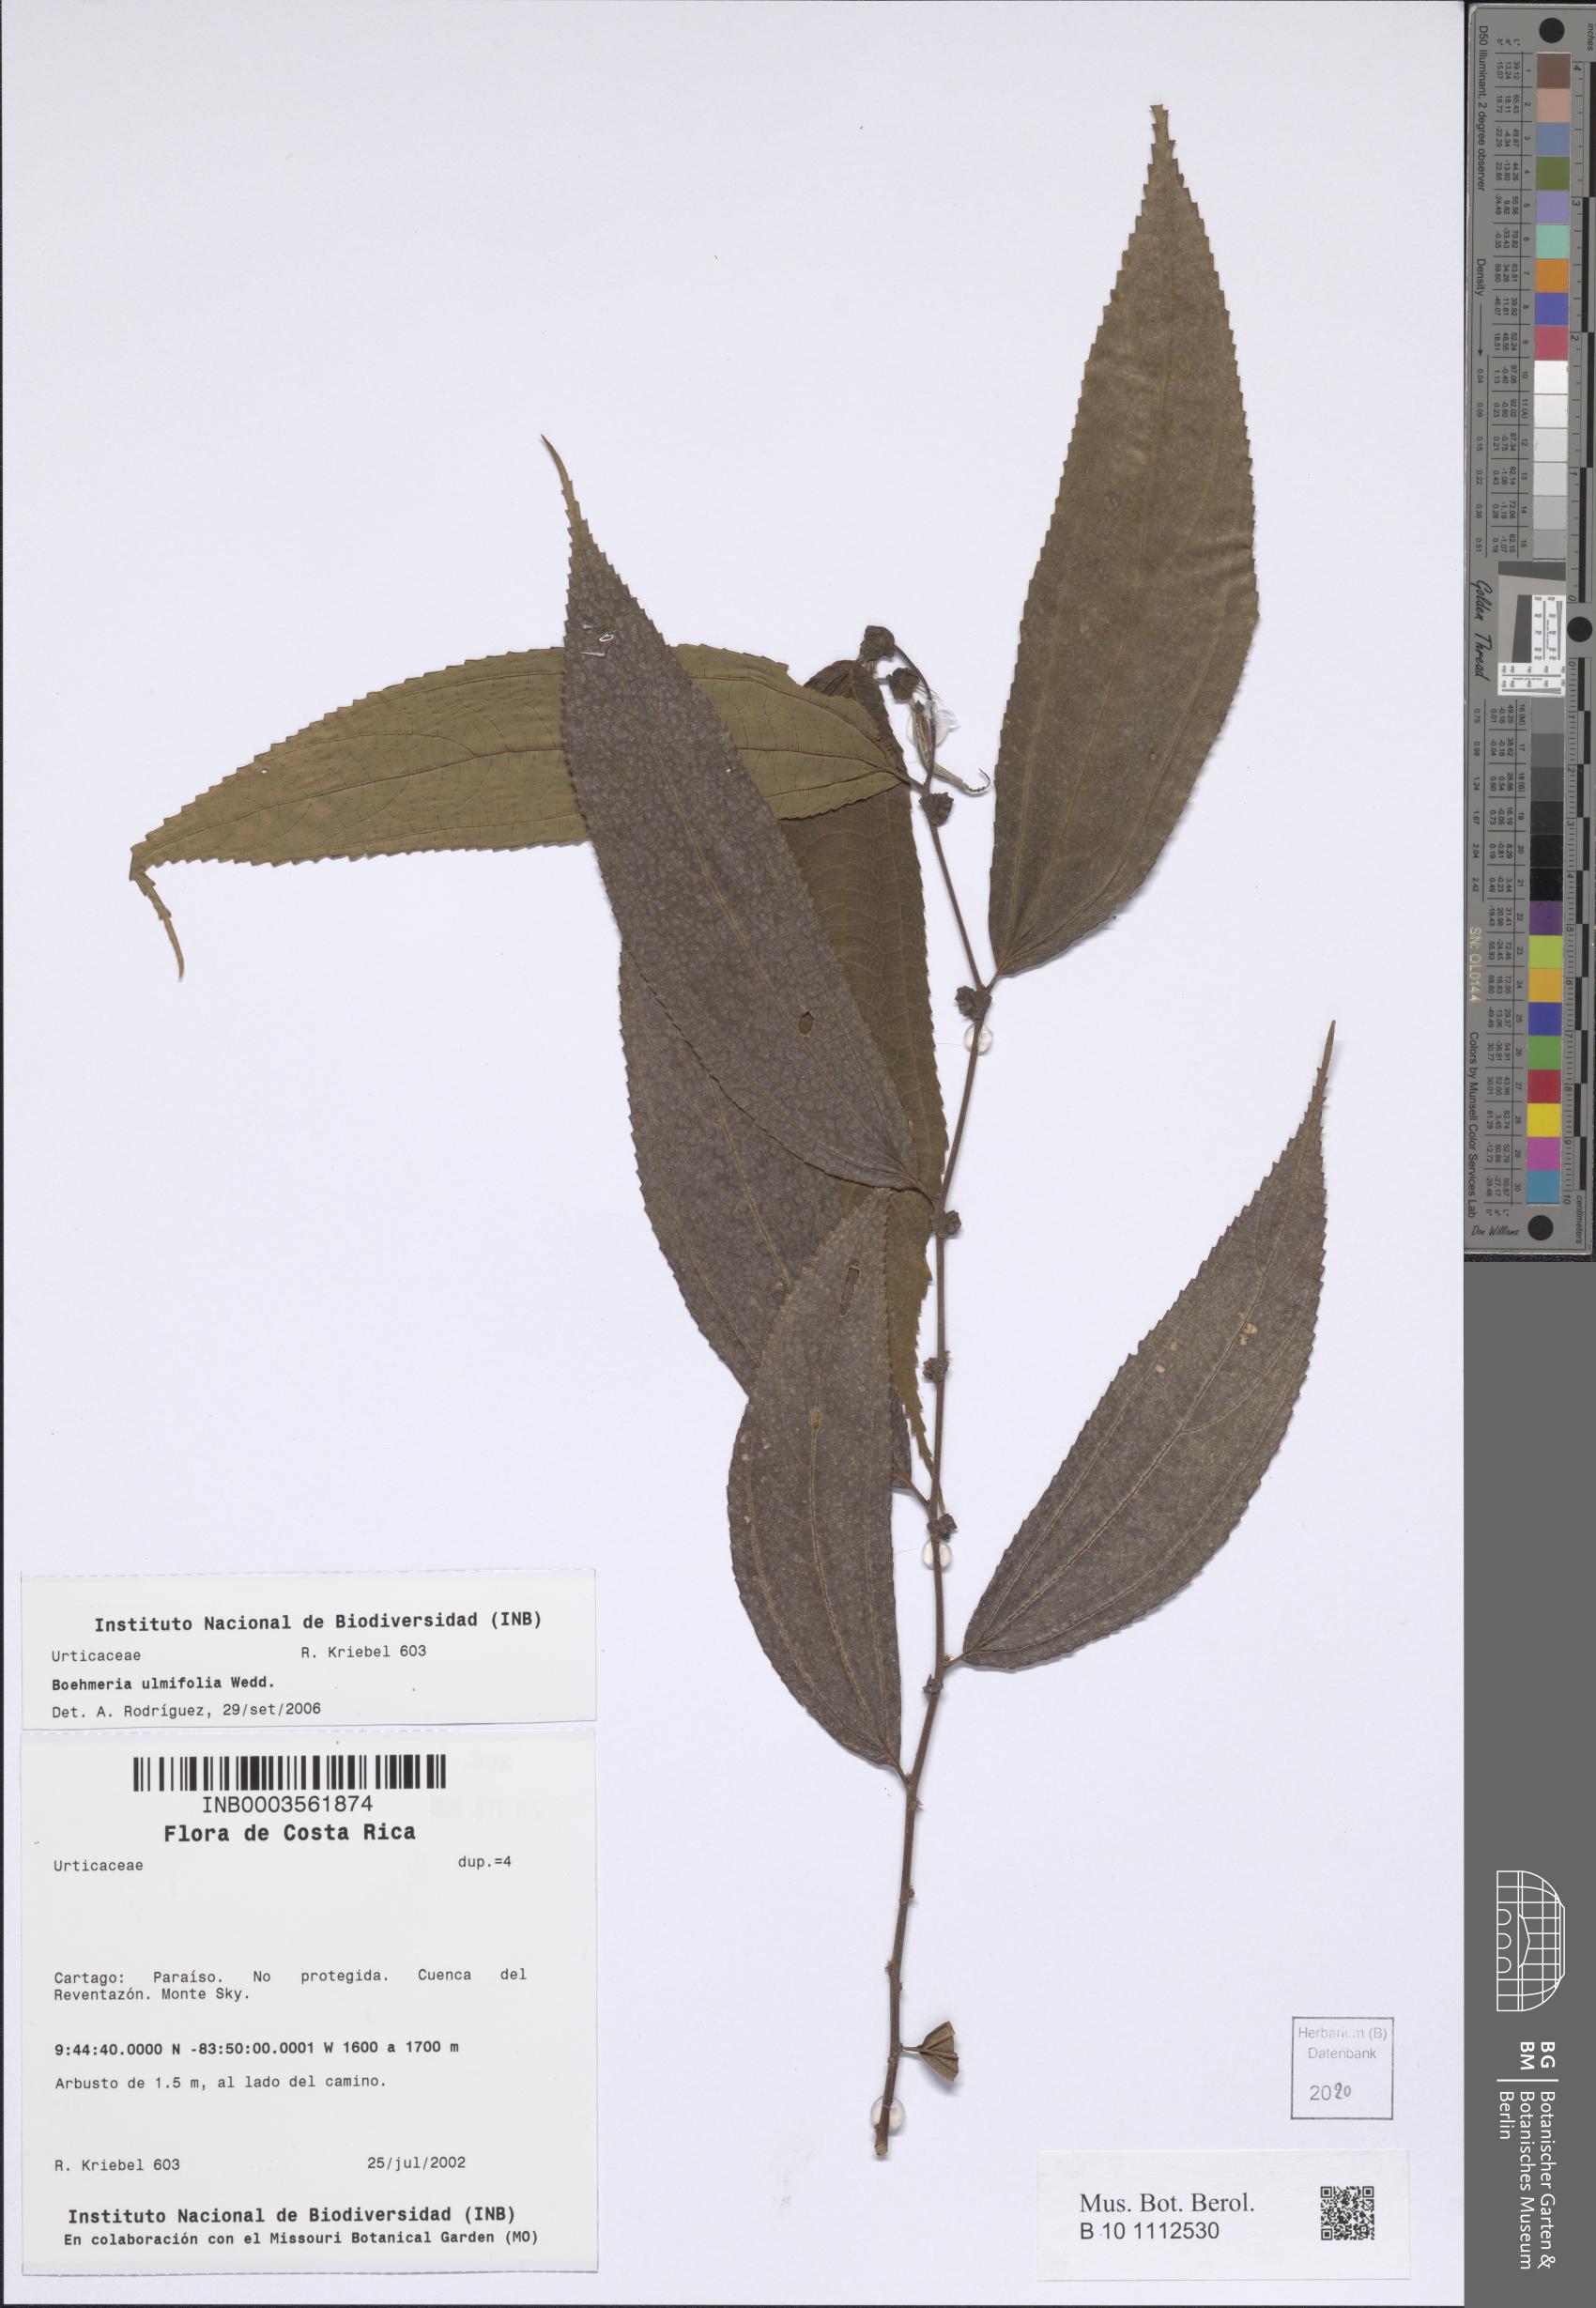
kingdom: Plantae
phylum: Tracheophyta
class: Magnoliopsida
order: Rosales
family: Urticaceae
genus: Boehmeria
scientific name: Boehmeria ulmifolia
